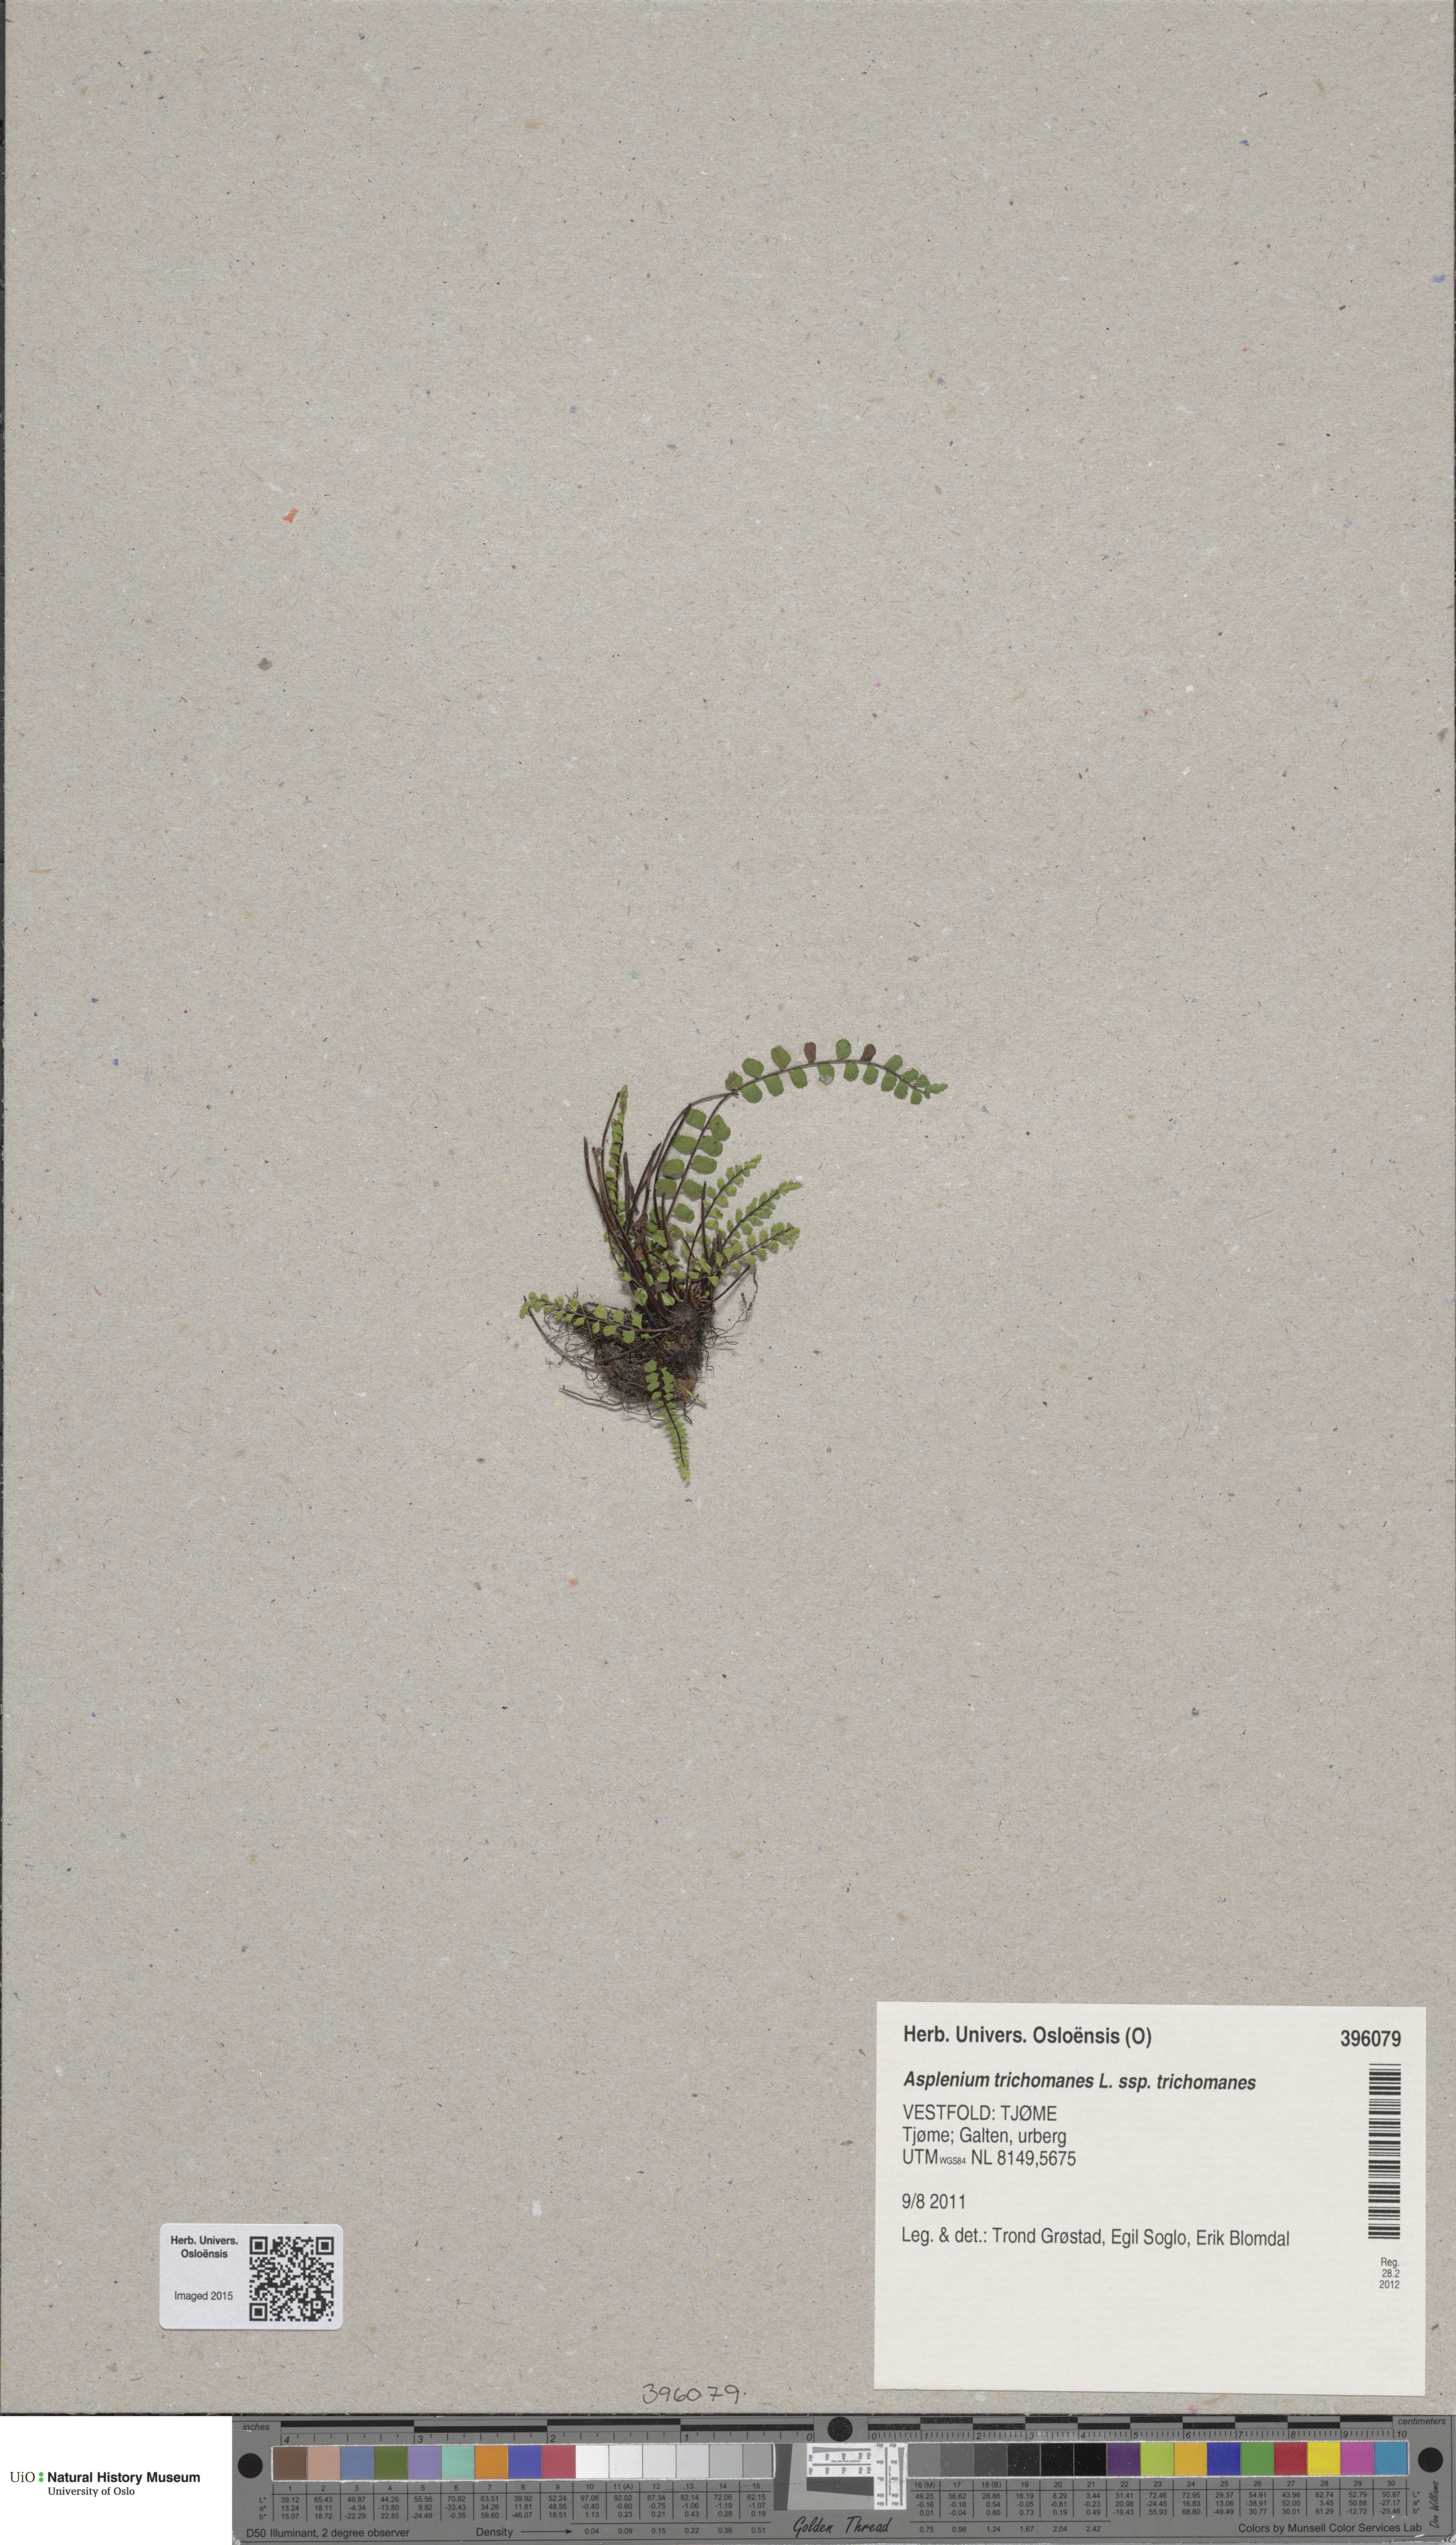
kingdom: Plantae
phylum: Tracheophyta
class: Polypodiopsida
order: Polypodiales
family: Aspleniaceae
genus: Asplenium
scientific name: Asplenium trichomanes
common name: Maidenhair spleenwort
